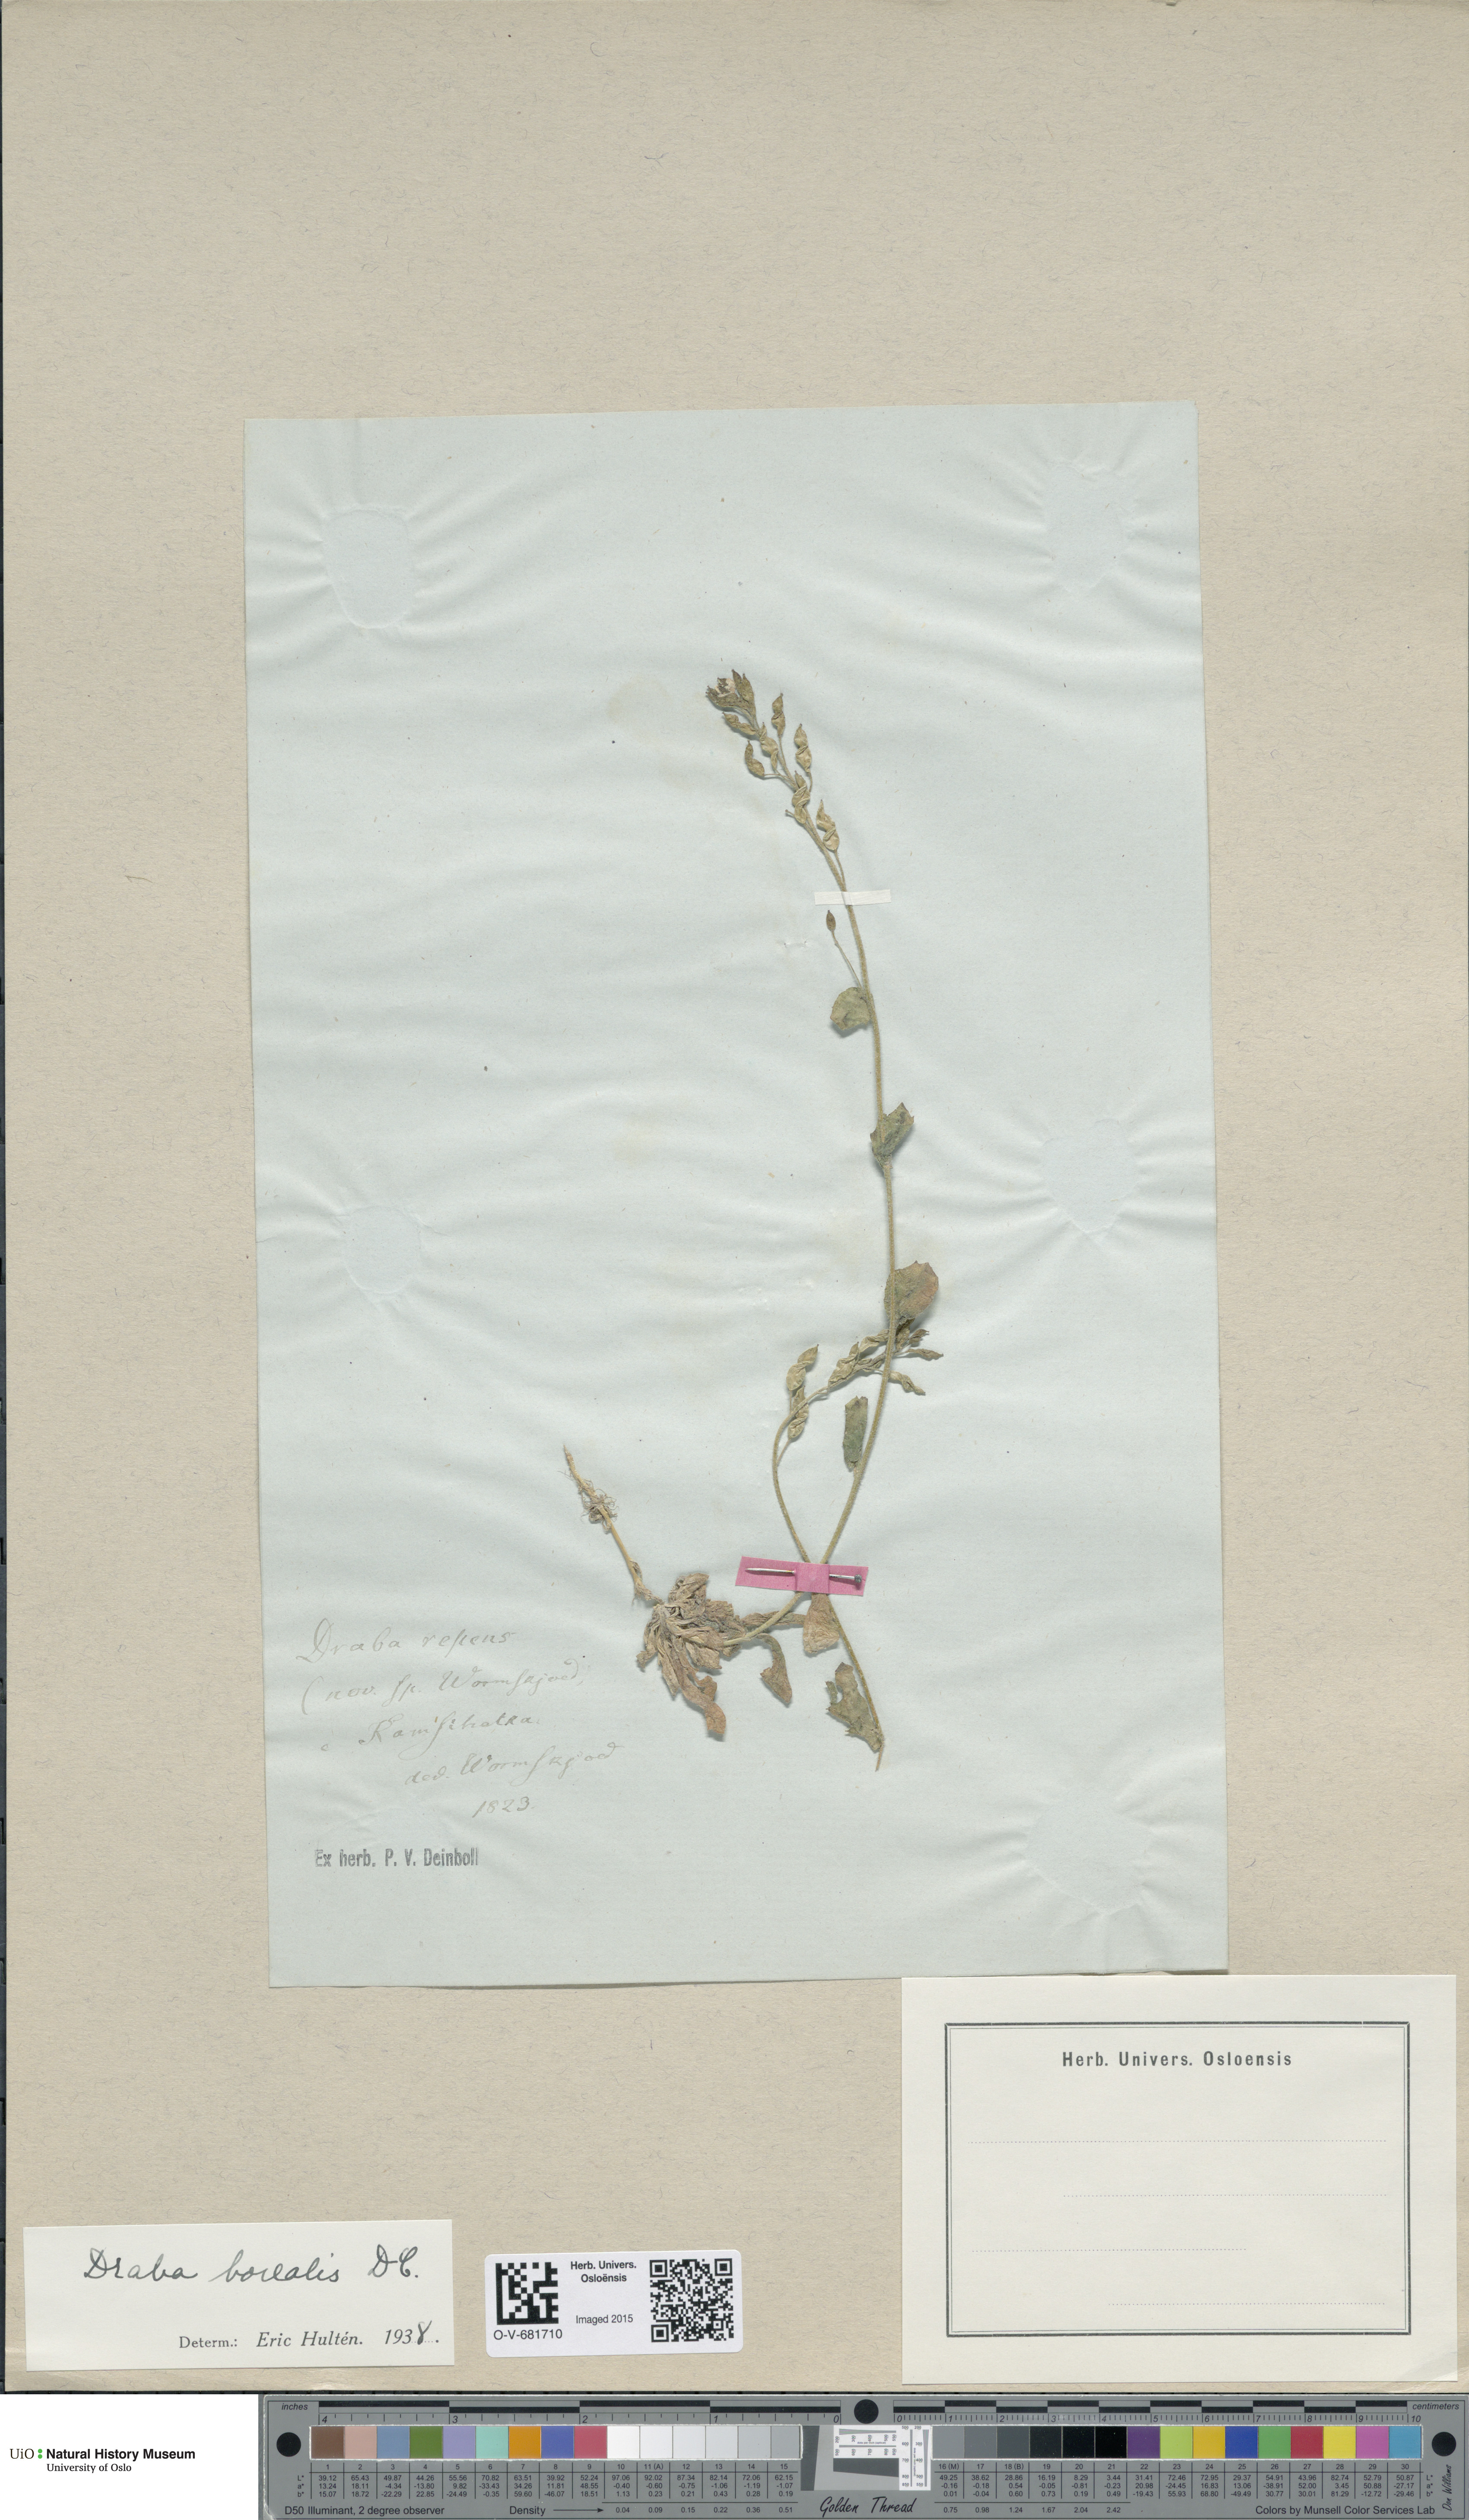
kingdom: Plantae
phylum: Tracheophyta
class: Magnoliopsida
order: Brassicales
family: Brassicaceae
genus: Draba
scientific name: Draba borealis
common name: Boreal draba
